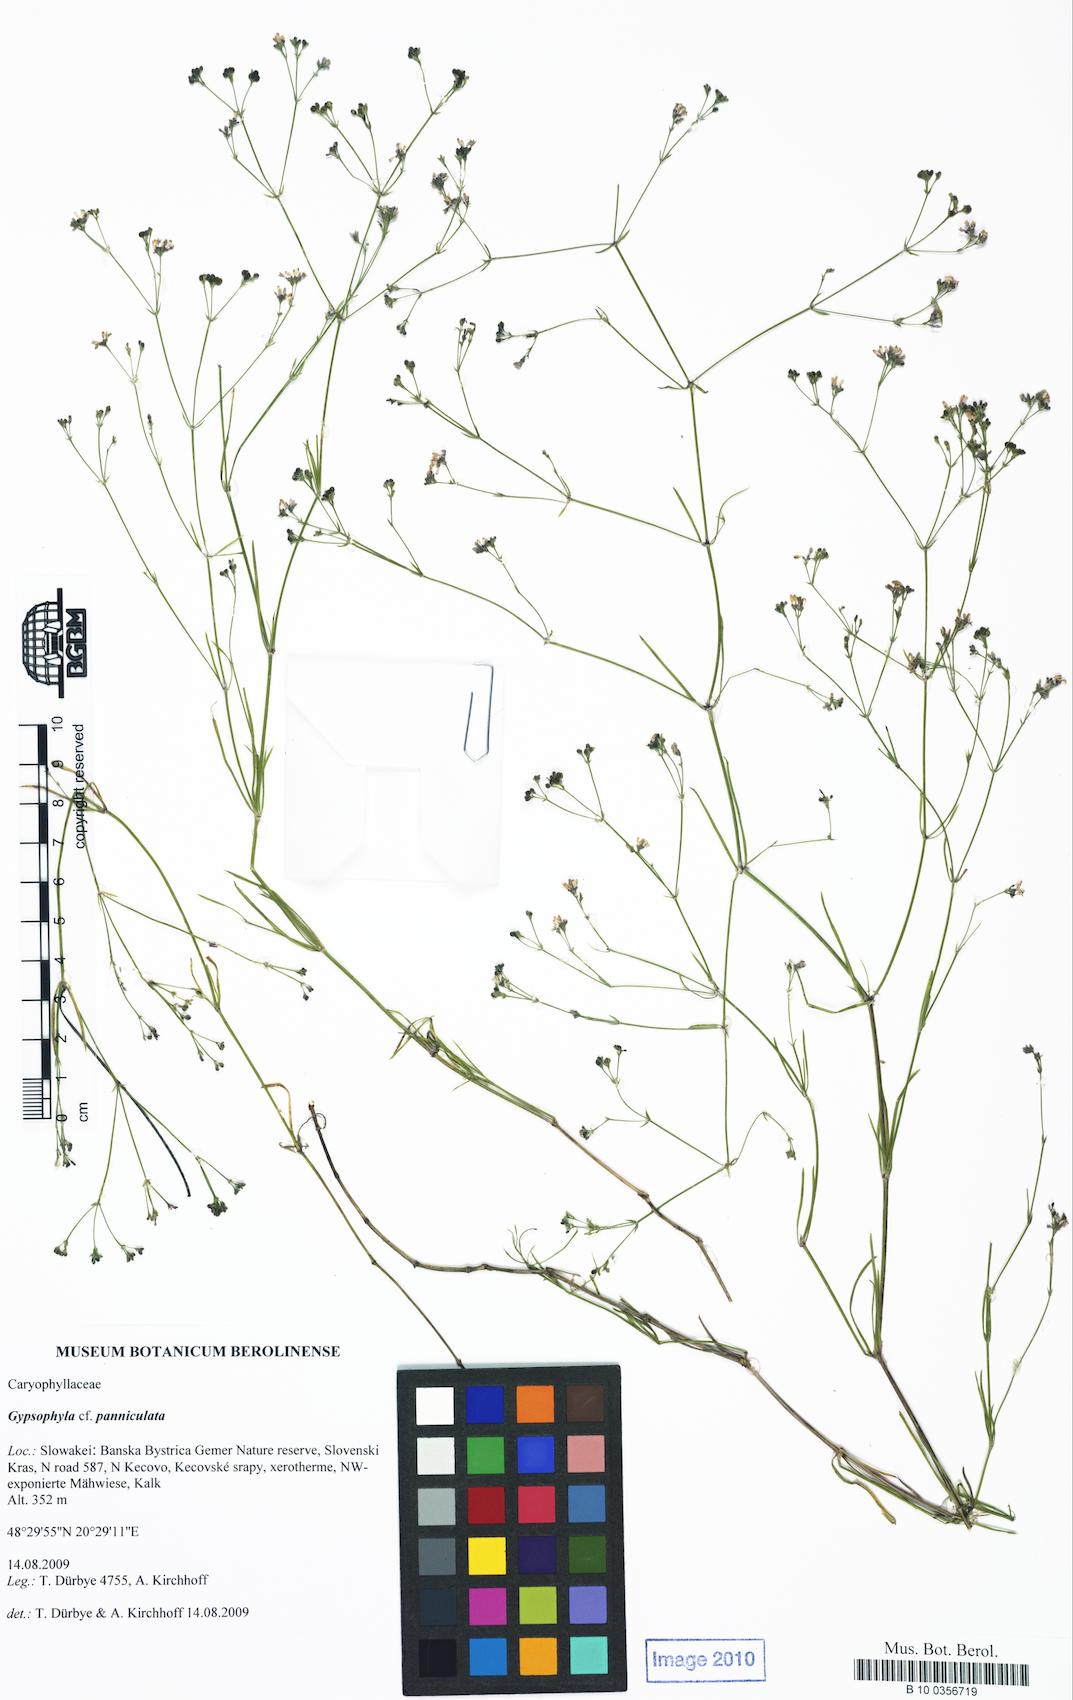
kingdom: Plantae
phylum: Tracheophyta
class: Magnoliopsida
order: Gentianales
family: Rubiaceae
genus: Asperula
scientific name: Asperula
